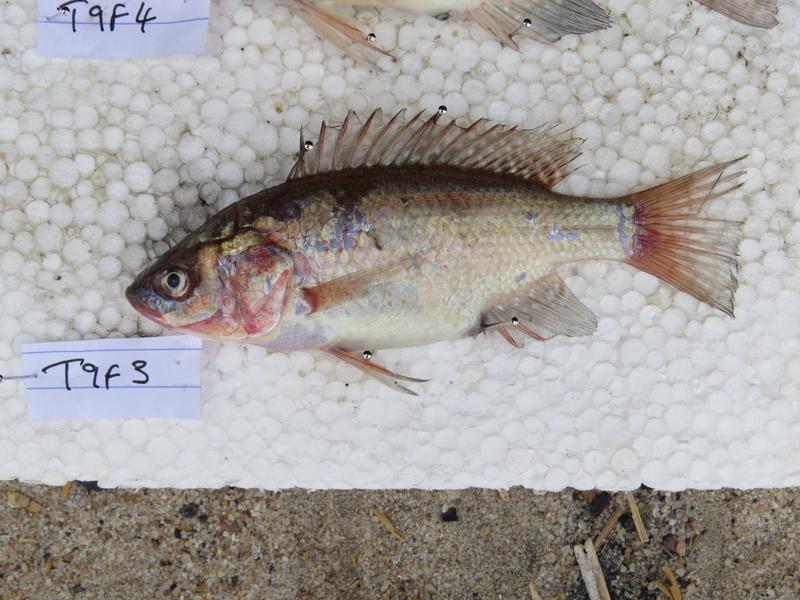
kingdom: Animalia
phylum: Chordata
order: Perciformes
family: Cichlidae
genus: Oreochromis
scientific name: Oreochromis amphimelas
